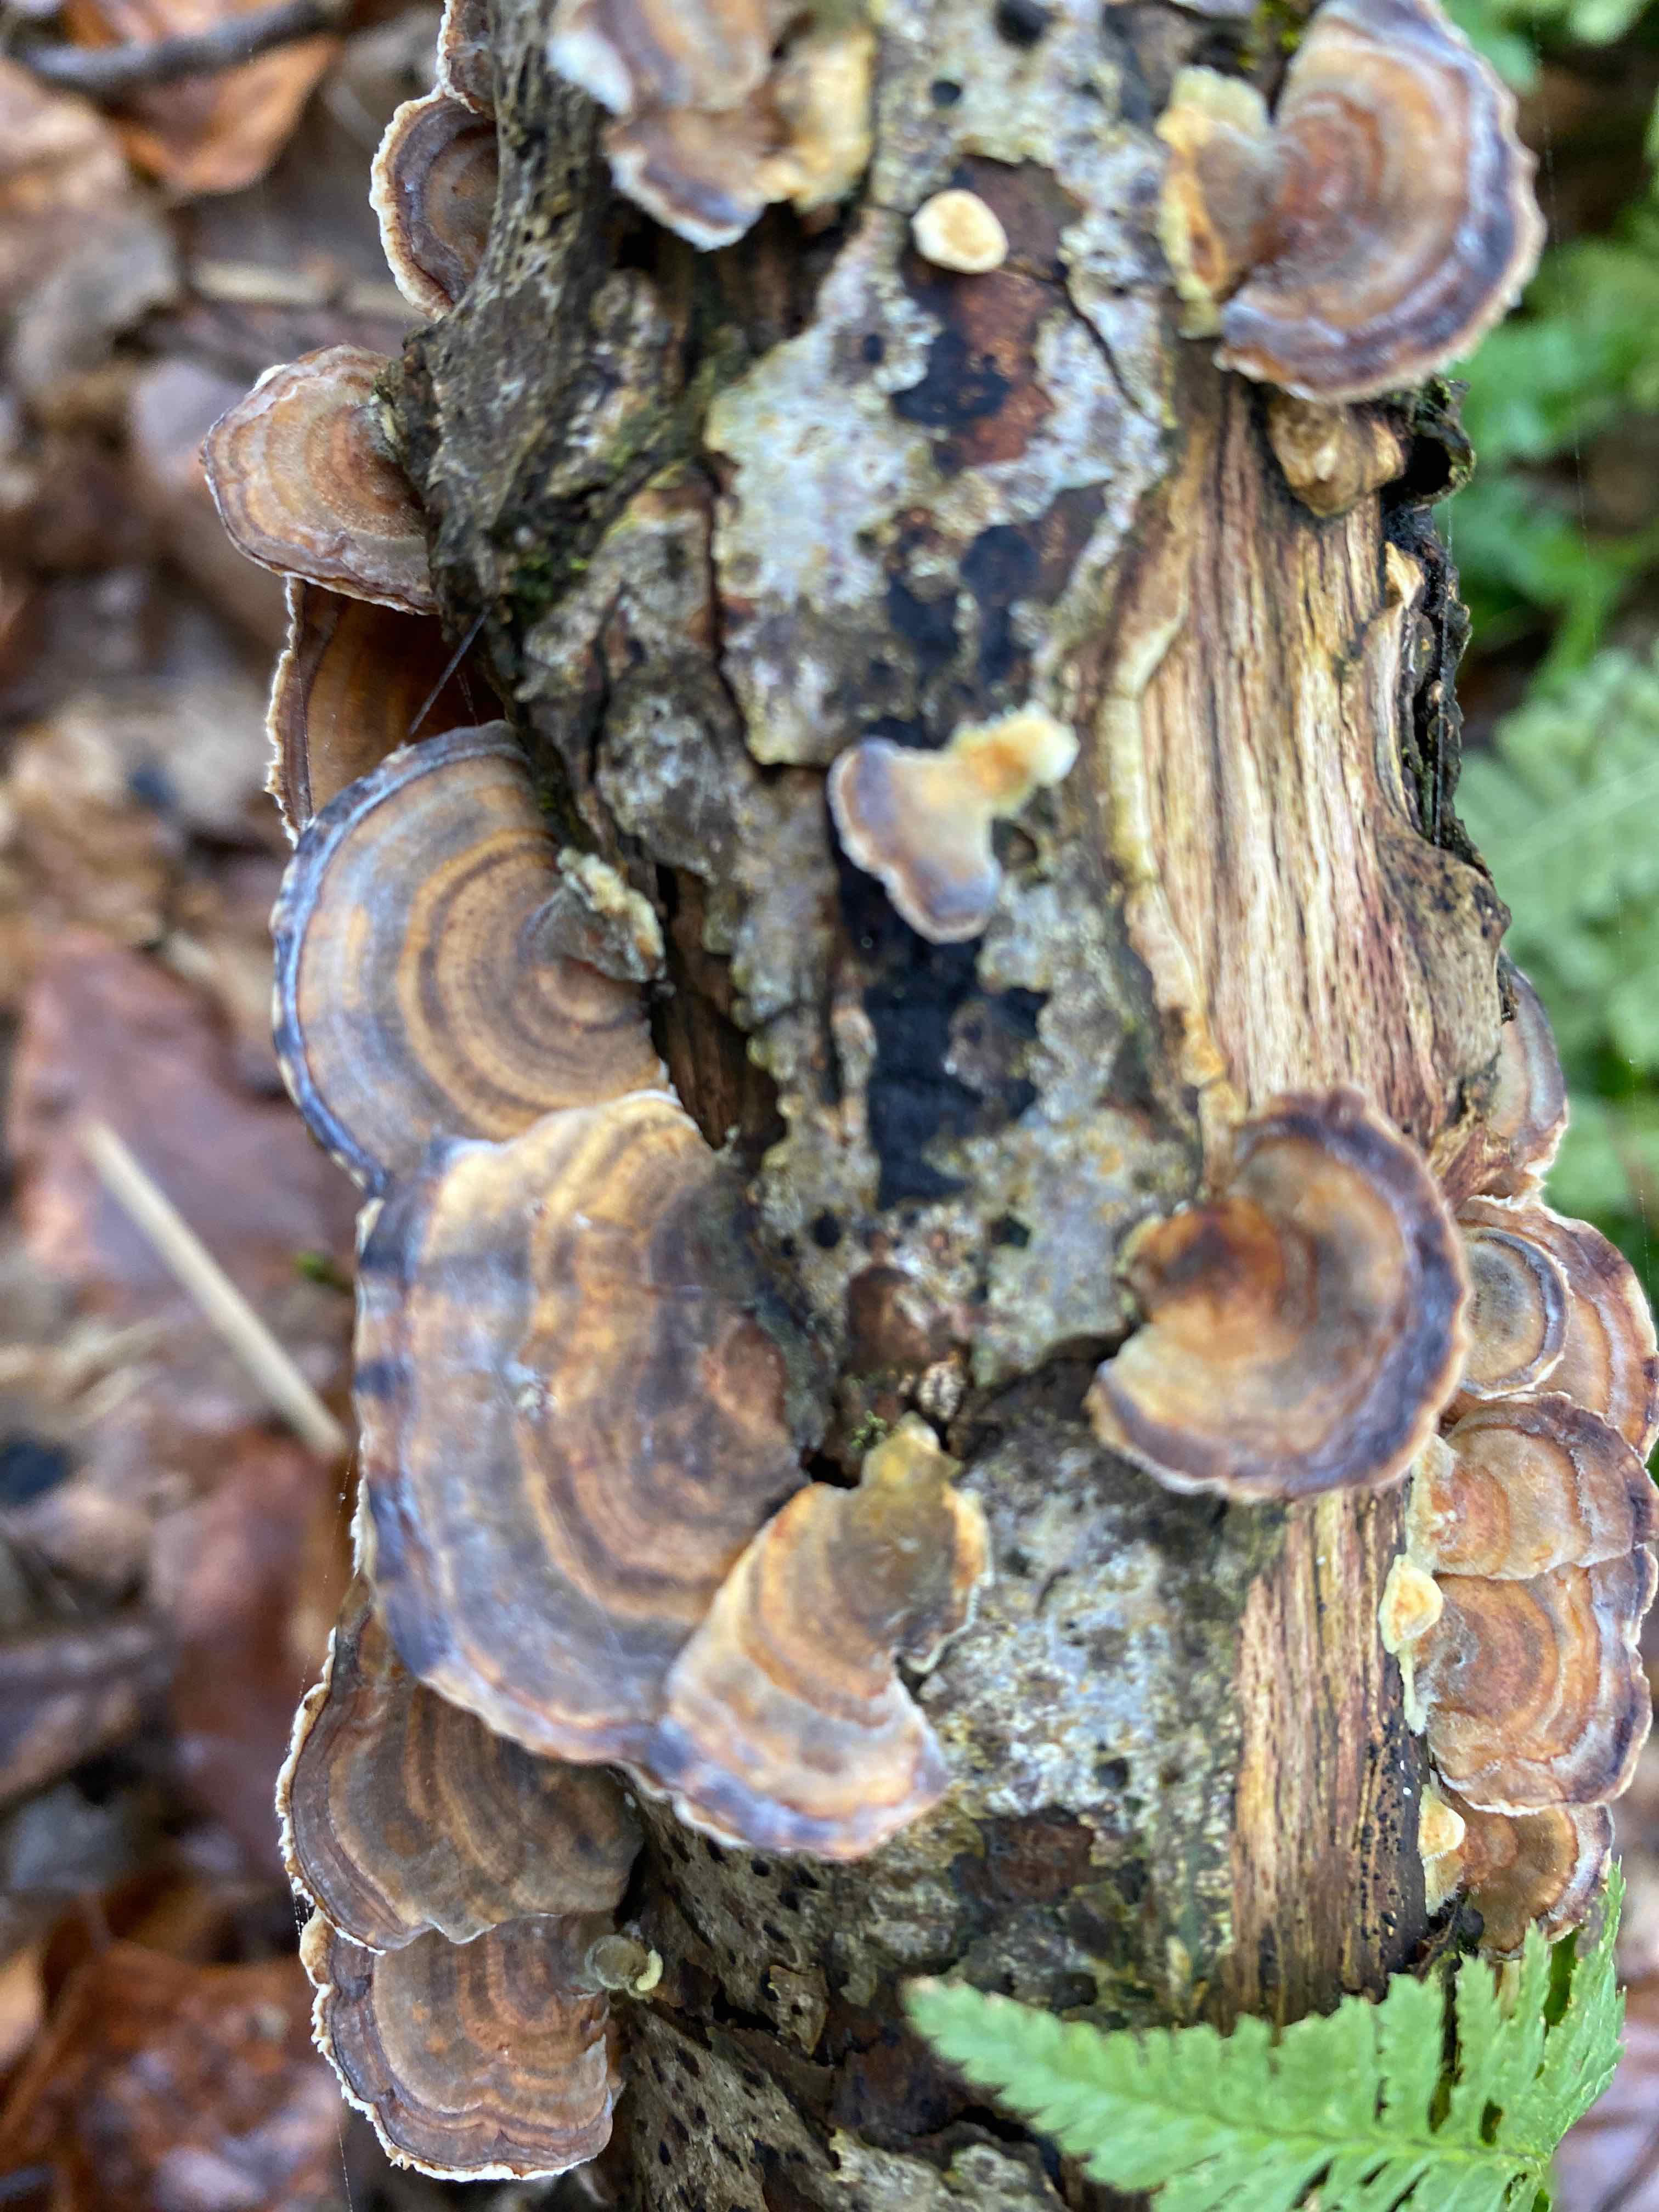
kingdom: Fungi
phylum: Basidiomycota
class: Agaricomycetes
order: Polyporales
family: Polyporaceae
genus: Trametes
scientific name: Trametes versicolor
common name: broget læderporesvamp
